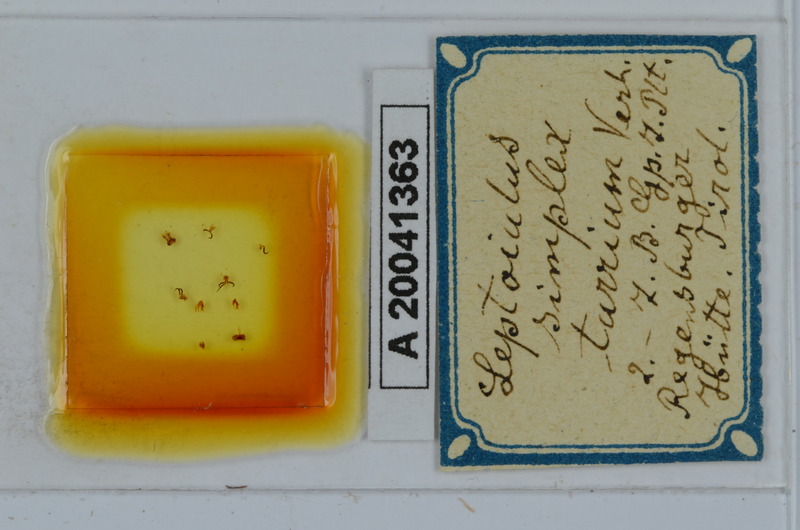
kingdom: Animalia
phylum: Arthropoda
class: Diplopoda
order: Julida
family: Julidae
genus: Leptoiulus
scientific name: Leptoiulus simplex
